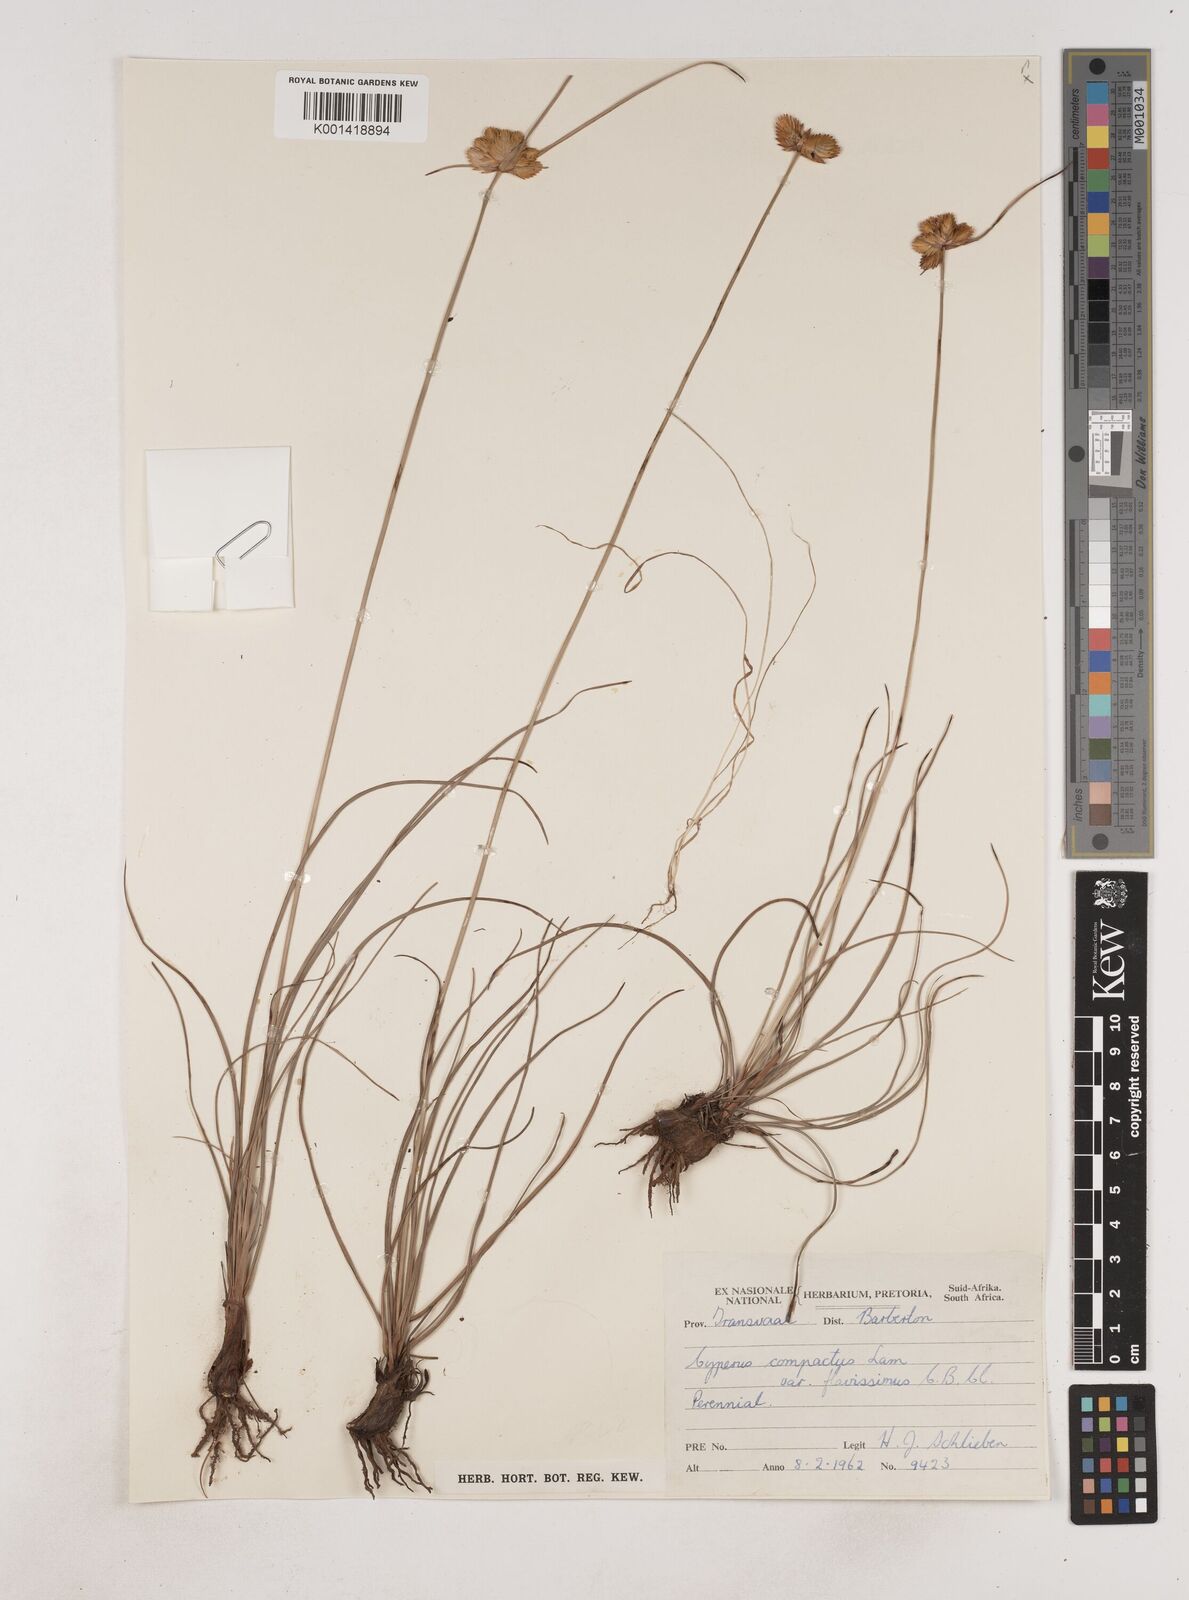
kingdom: Plantae
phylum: Tracheophyta
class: Liliopsida
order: Poales
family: Cyperaceae
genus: Cyperus
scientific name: Cyperus sphaerocephalus
